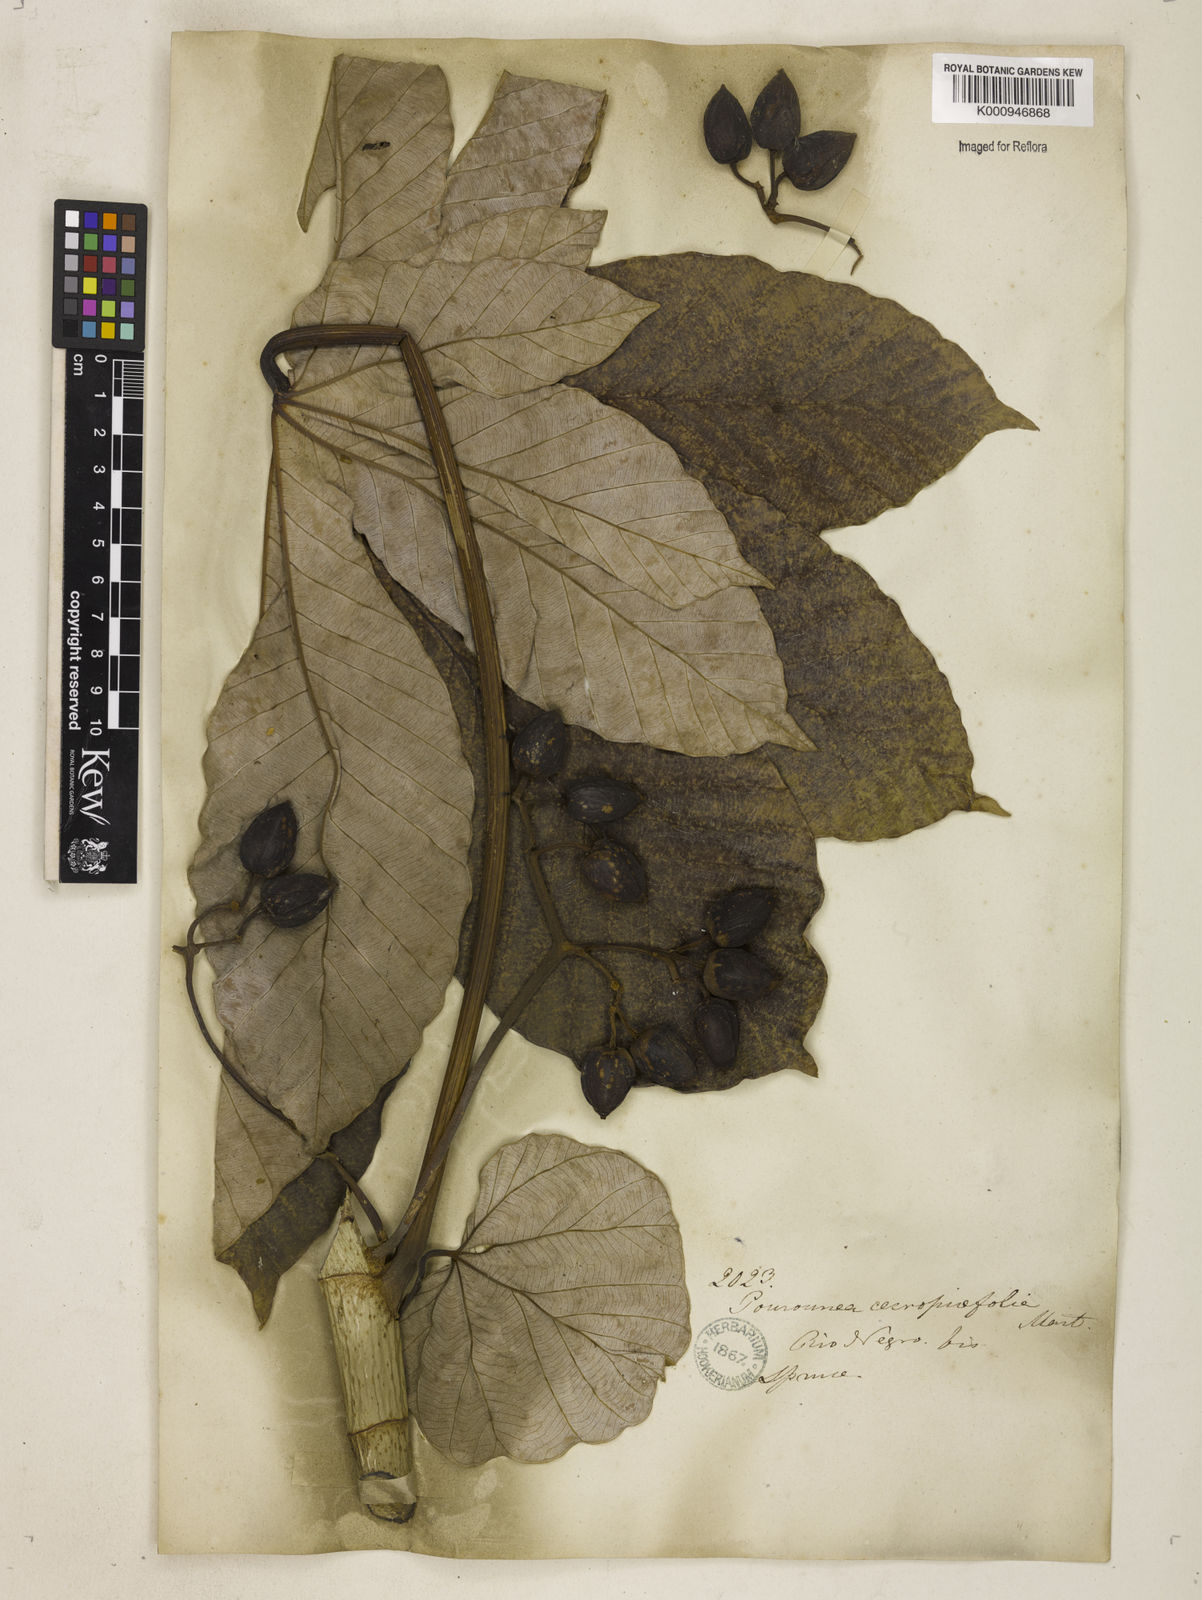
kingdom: Plantae
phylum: Tracheophyta
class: Magnoliopsida
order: Rosales
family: Urticaceae
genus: Pourouma
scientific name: Pourouma cecropiifolia
